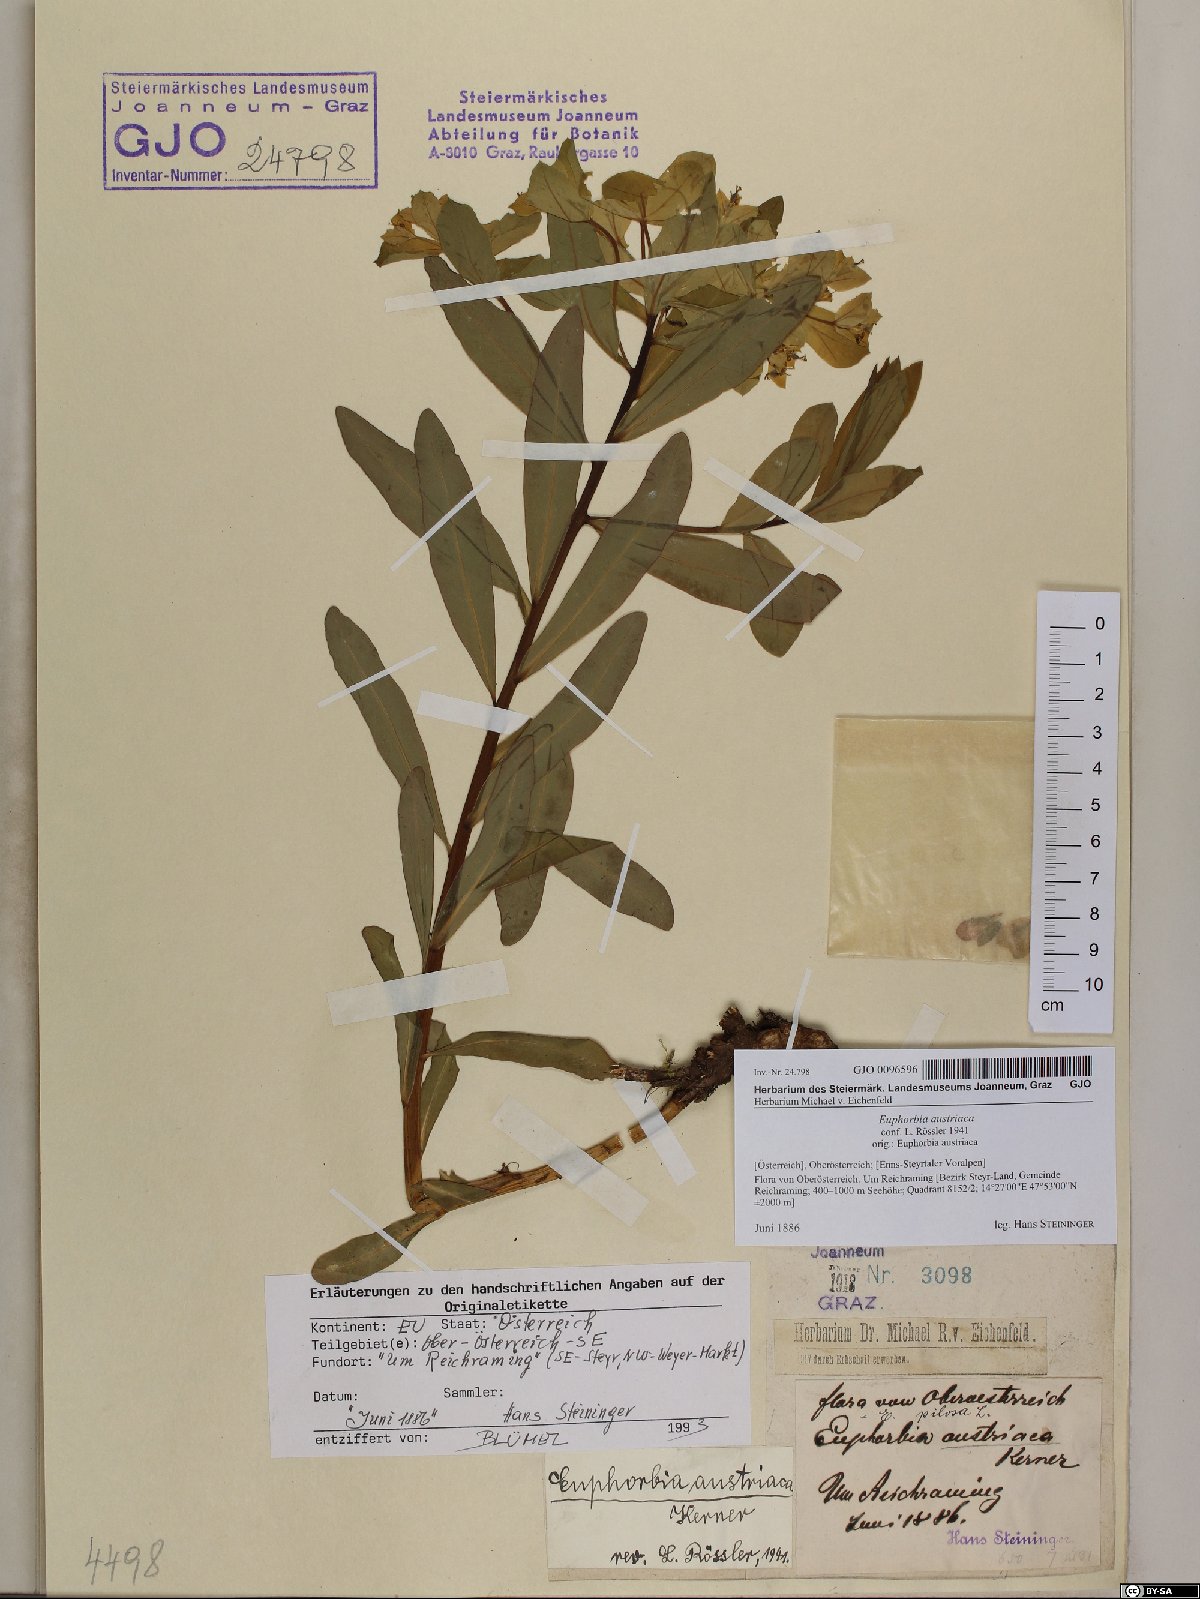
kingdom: Plantae
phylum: Tracheophyta
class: Magnoliopsida
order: Malpighiales
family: Euphorbiaceae
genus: Euphorbia
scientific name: Euphorbia austriaca
